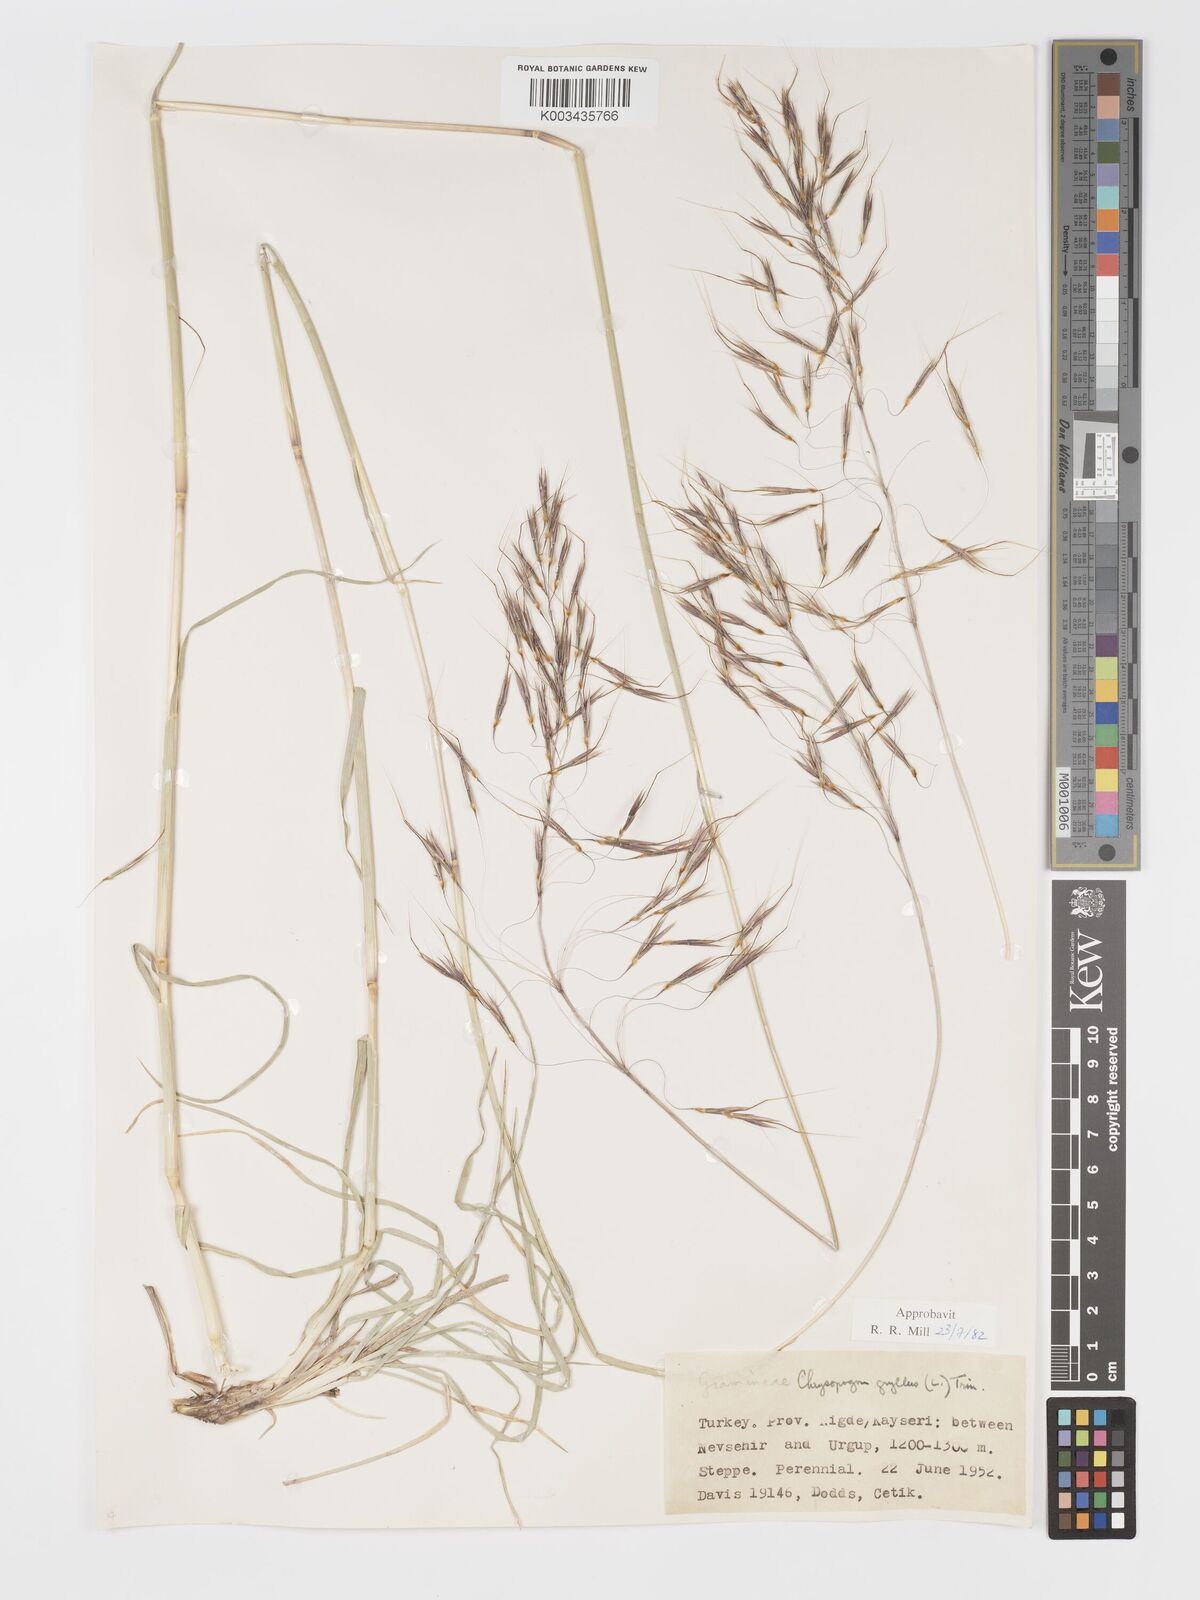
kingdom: Plantae
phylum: Tracheophyta
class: Liliopsida
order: Poales
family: Poaceae
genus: Chrysopogon
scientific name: Chrysopogon gryllus
